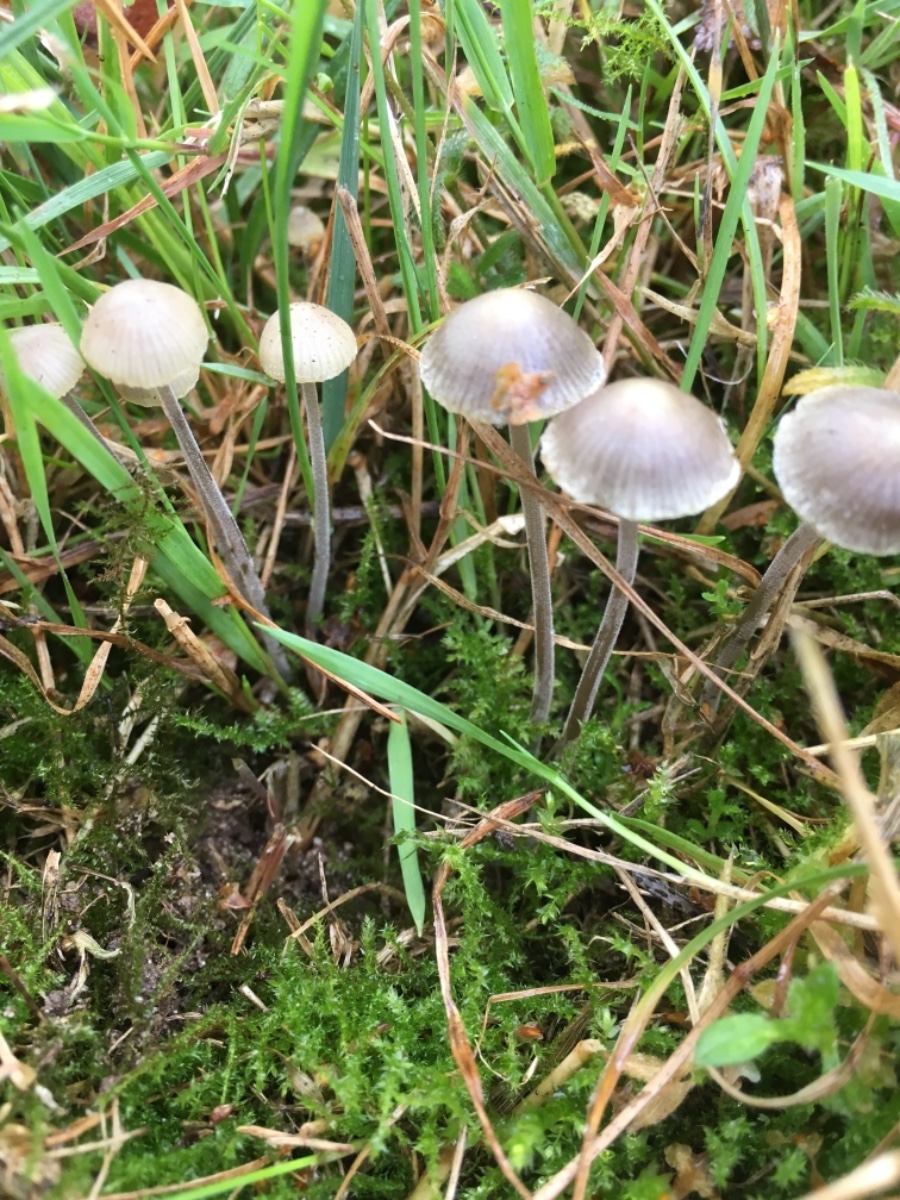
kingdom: Fungi
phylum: Basidiomycota
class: Agaricomycetes
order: Agaricales
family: Mycenaceae
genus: Mycena
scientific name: Mycena amicta
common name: iris-huesvamp
